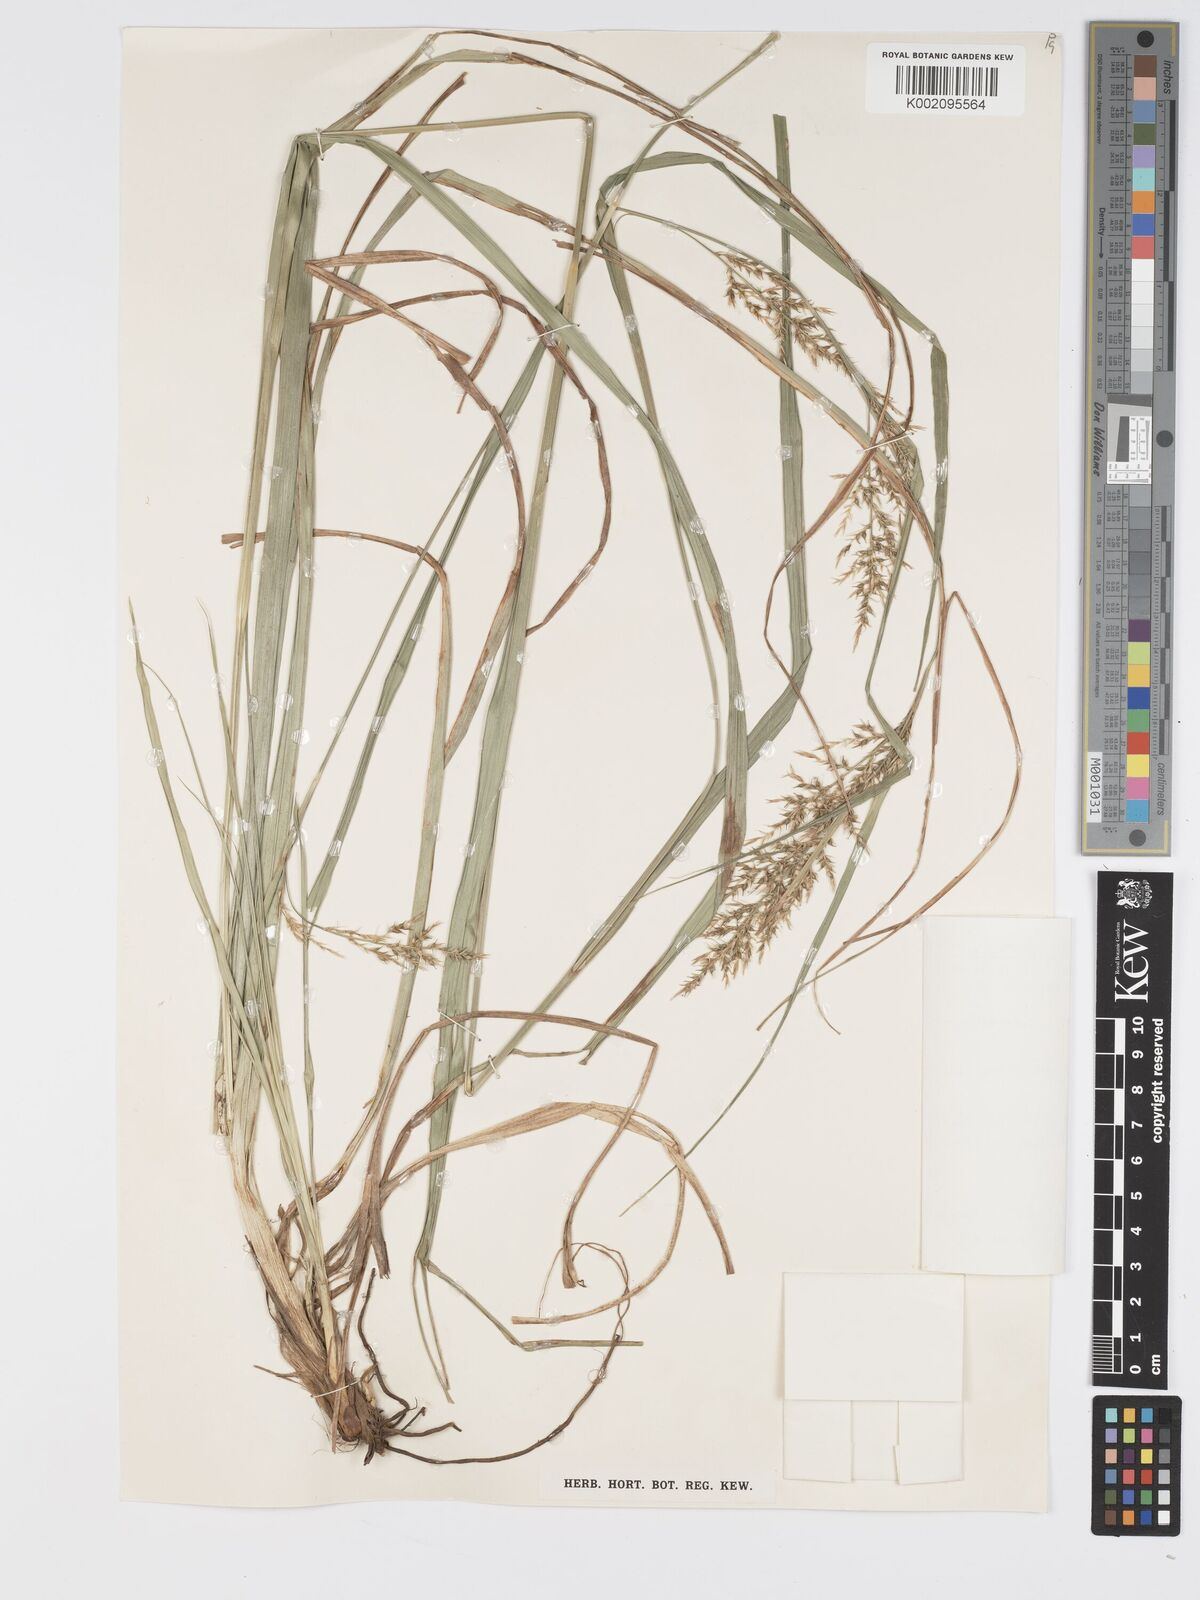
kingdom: Plantae
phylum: Tracheophyta
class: Liliopsida
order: Poales
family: Cyperaceae
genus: Carex
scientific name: Carex chlorosaccus
